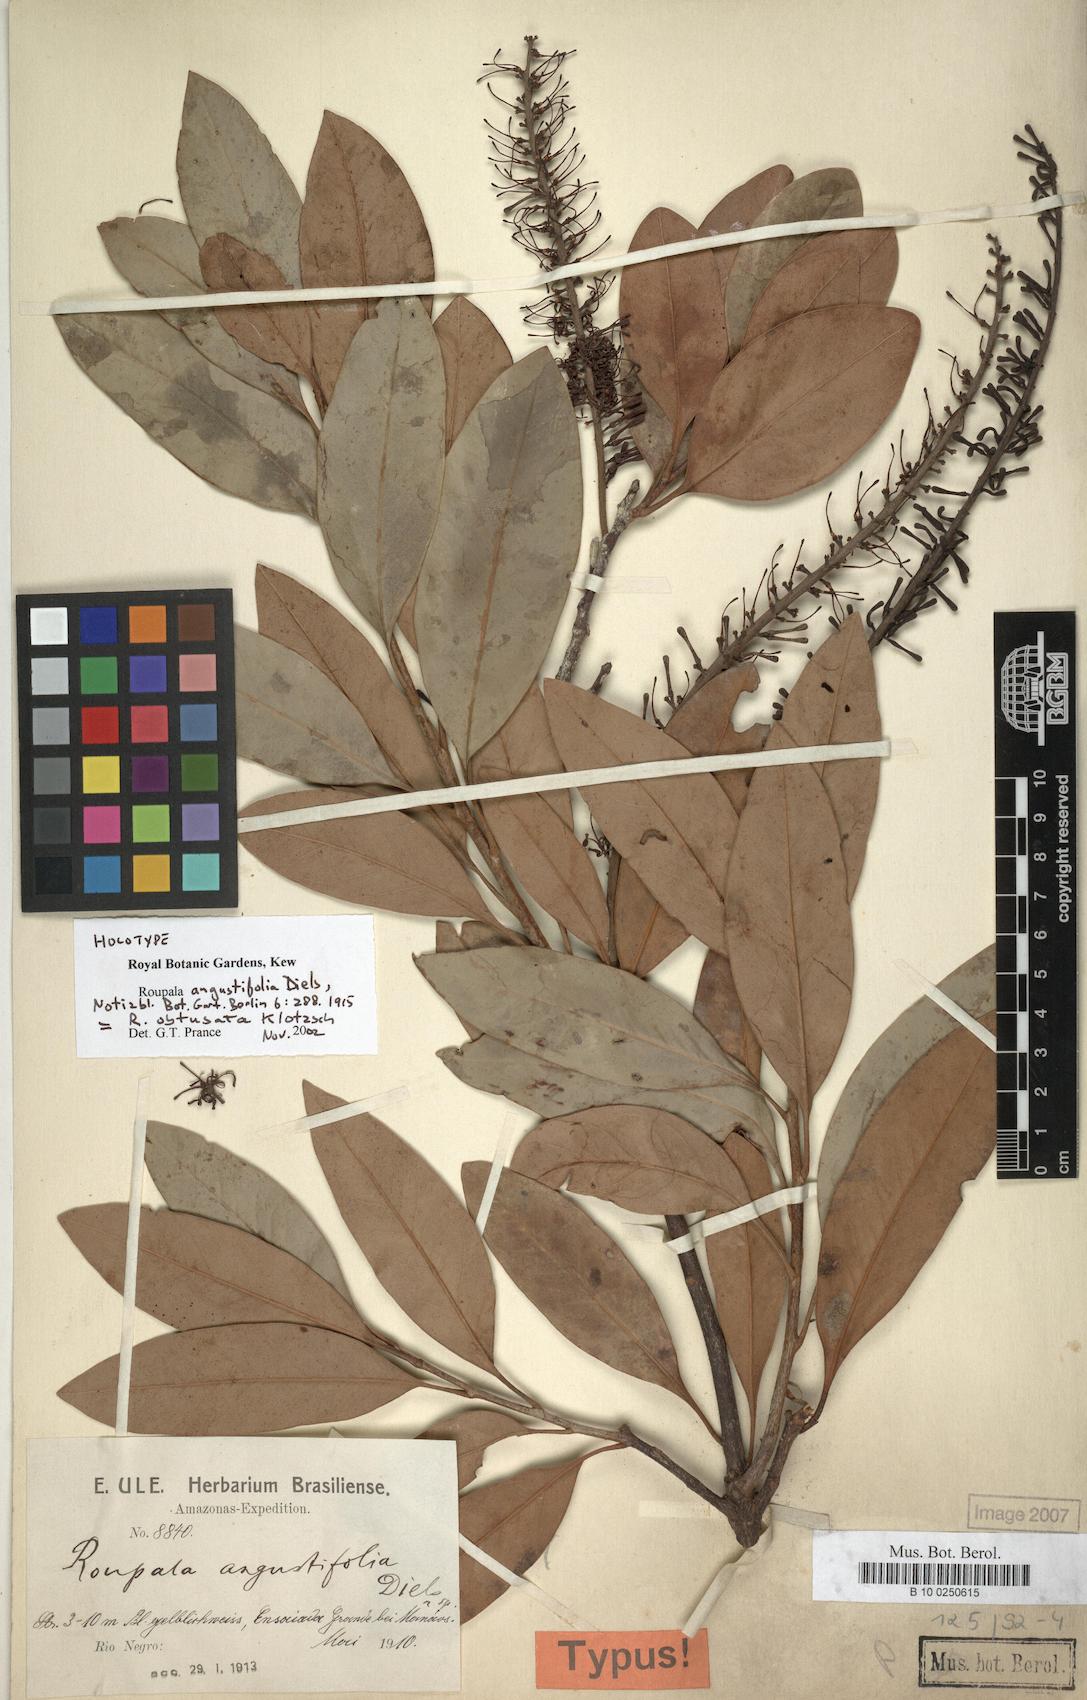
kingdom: Plantae
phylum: Tracheophyta
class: Magnoliopsida
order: Proteales
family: Proteaceae
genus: Roupala
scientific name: Roupala obtusata
